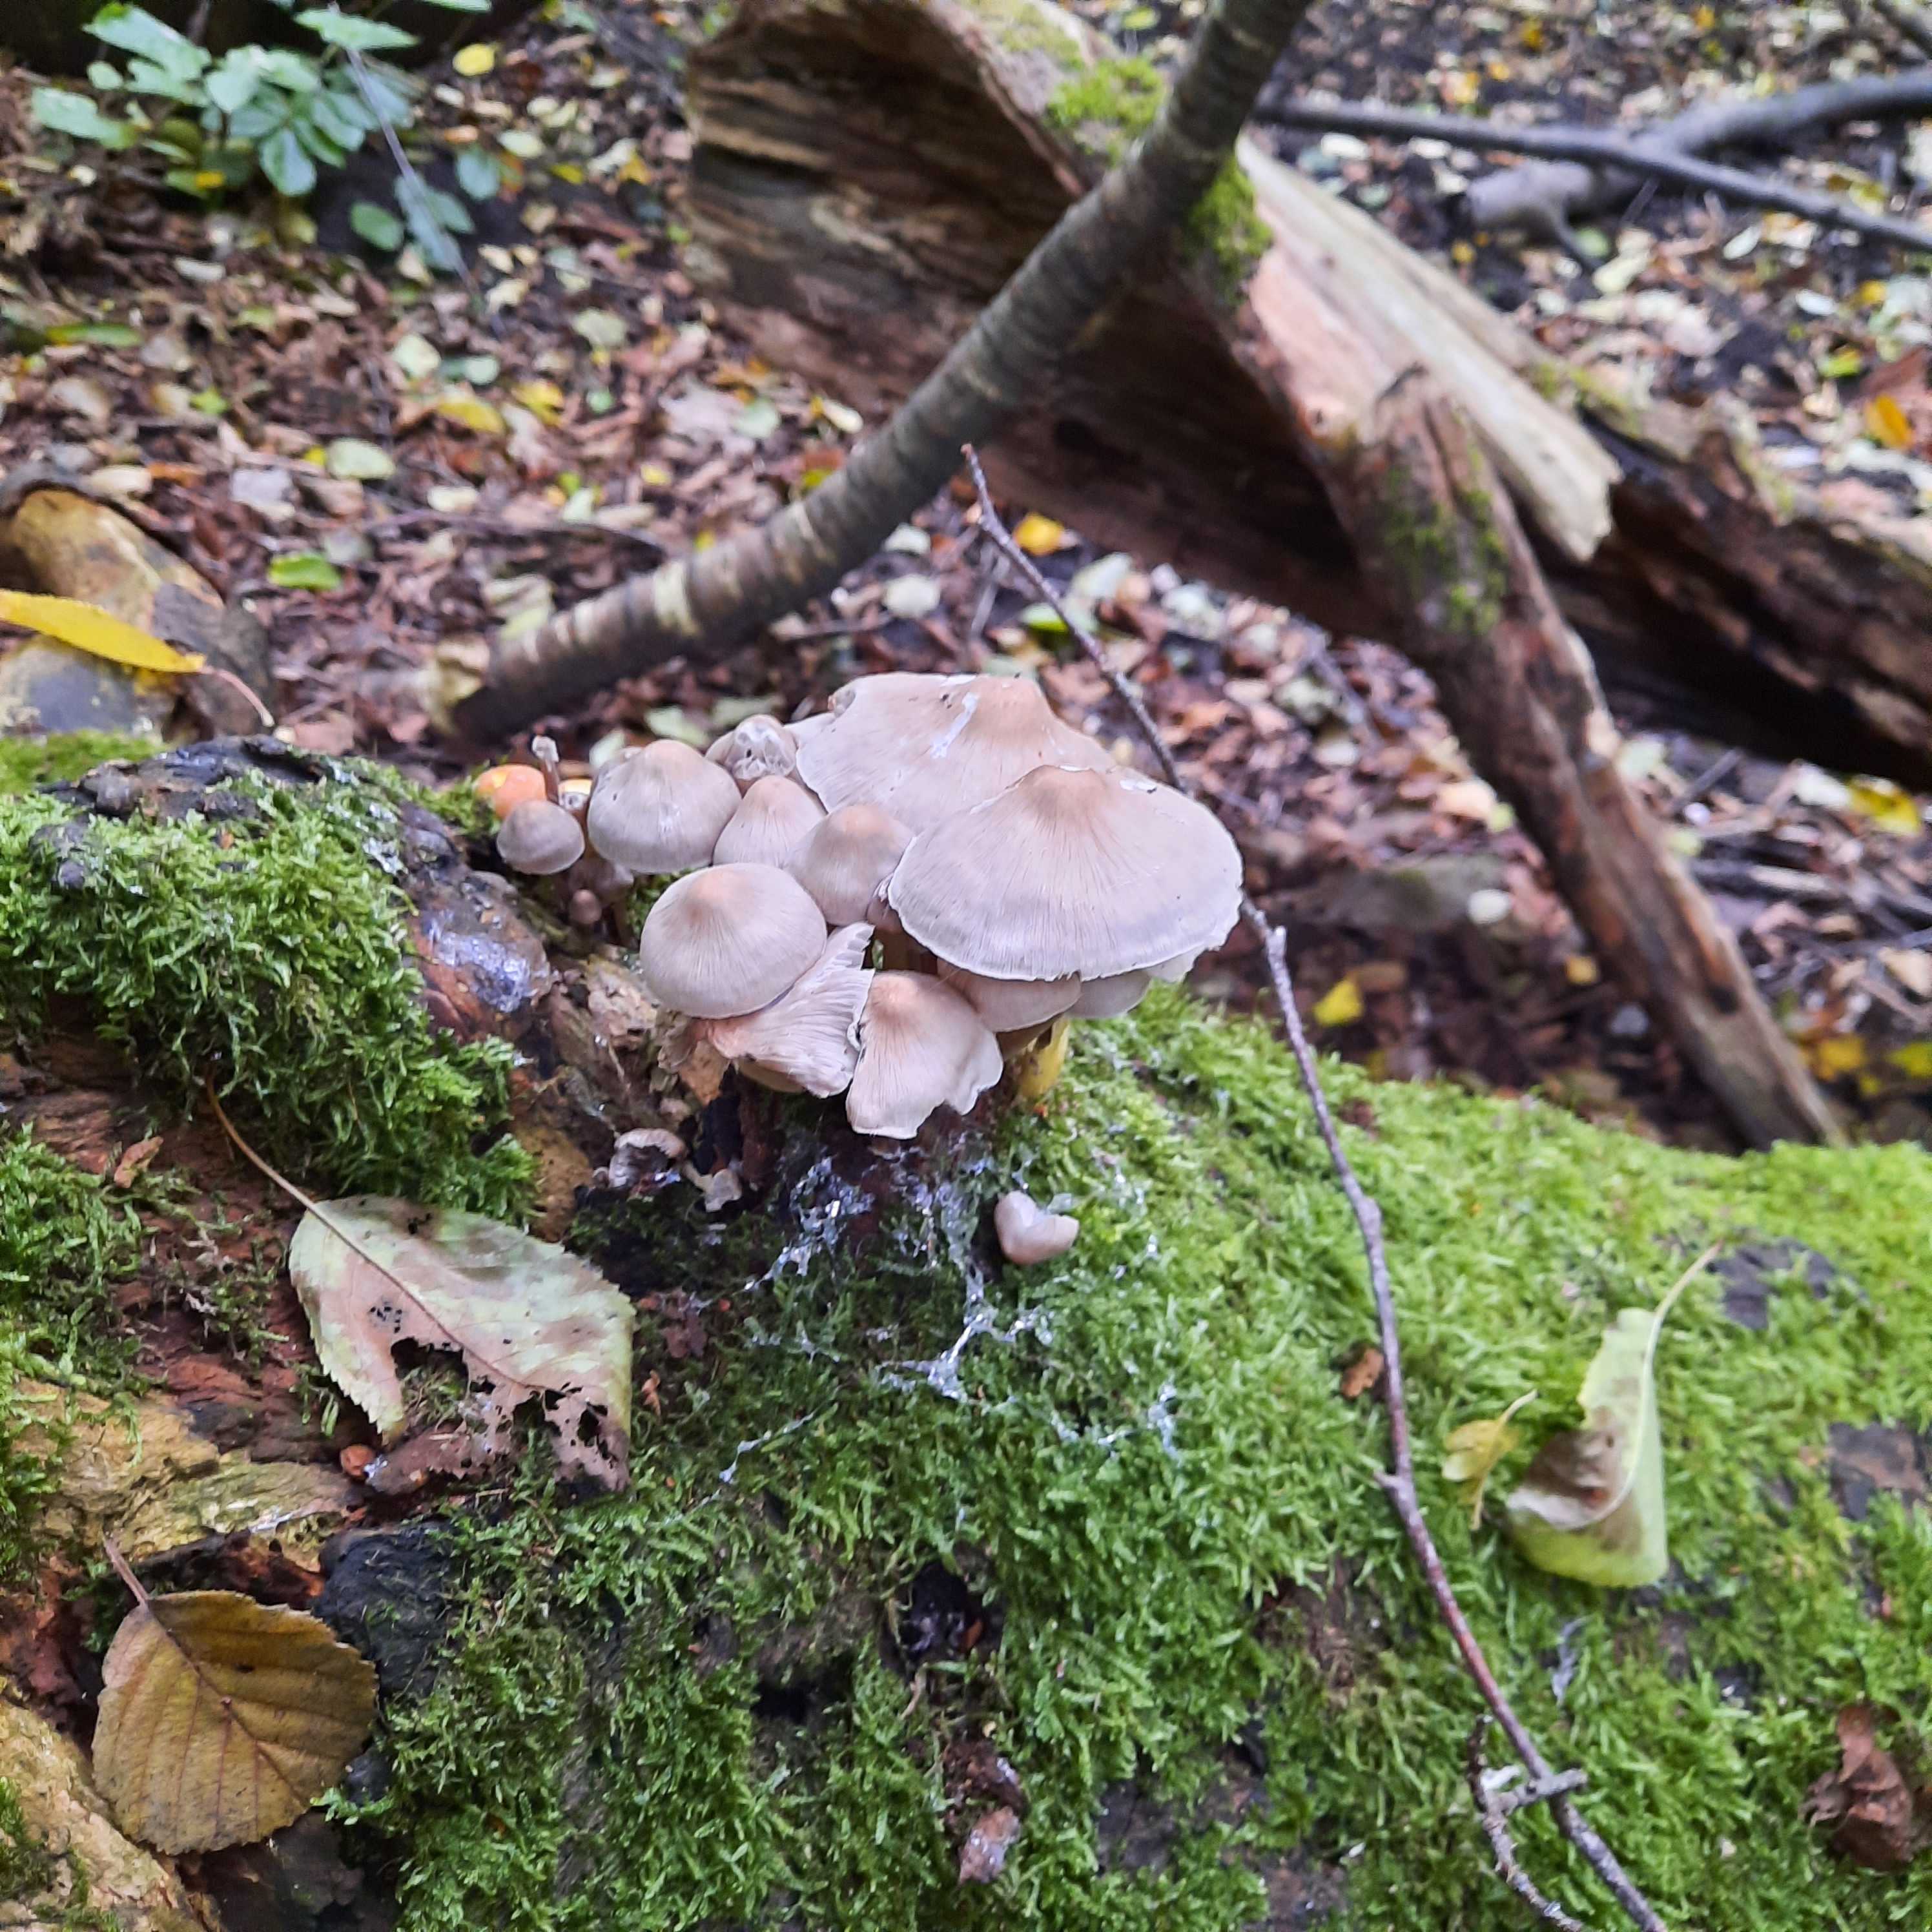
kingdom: Fungi
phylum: Basidiomycota
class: Agaricomycetes
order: Agaricales
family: Mycenaceae
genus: Mycena
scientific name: Mycena galericulata
